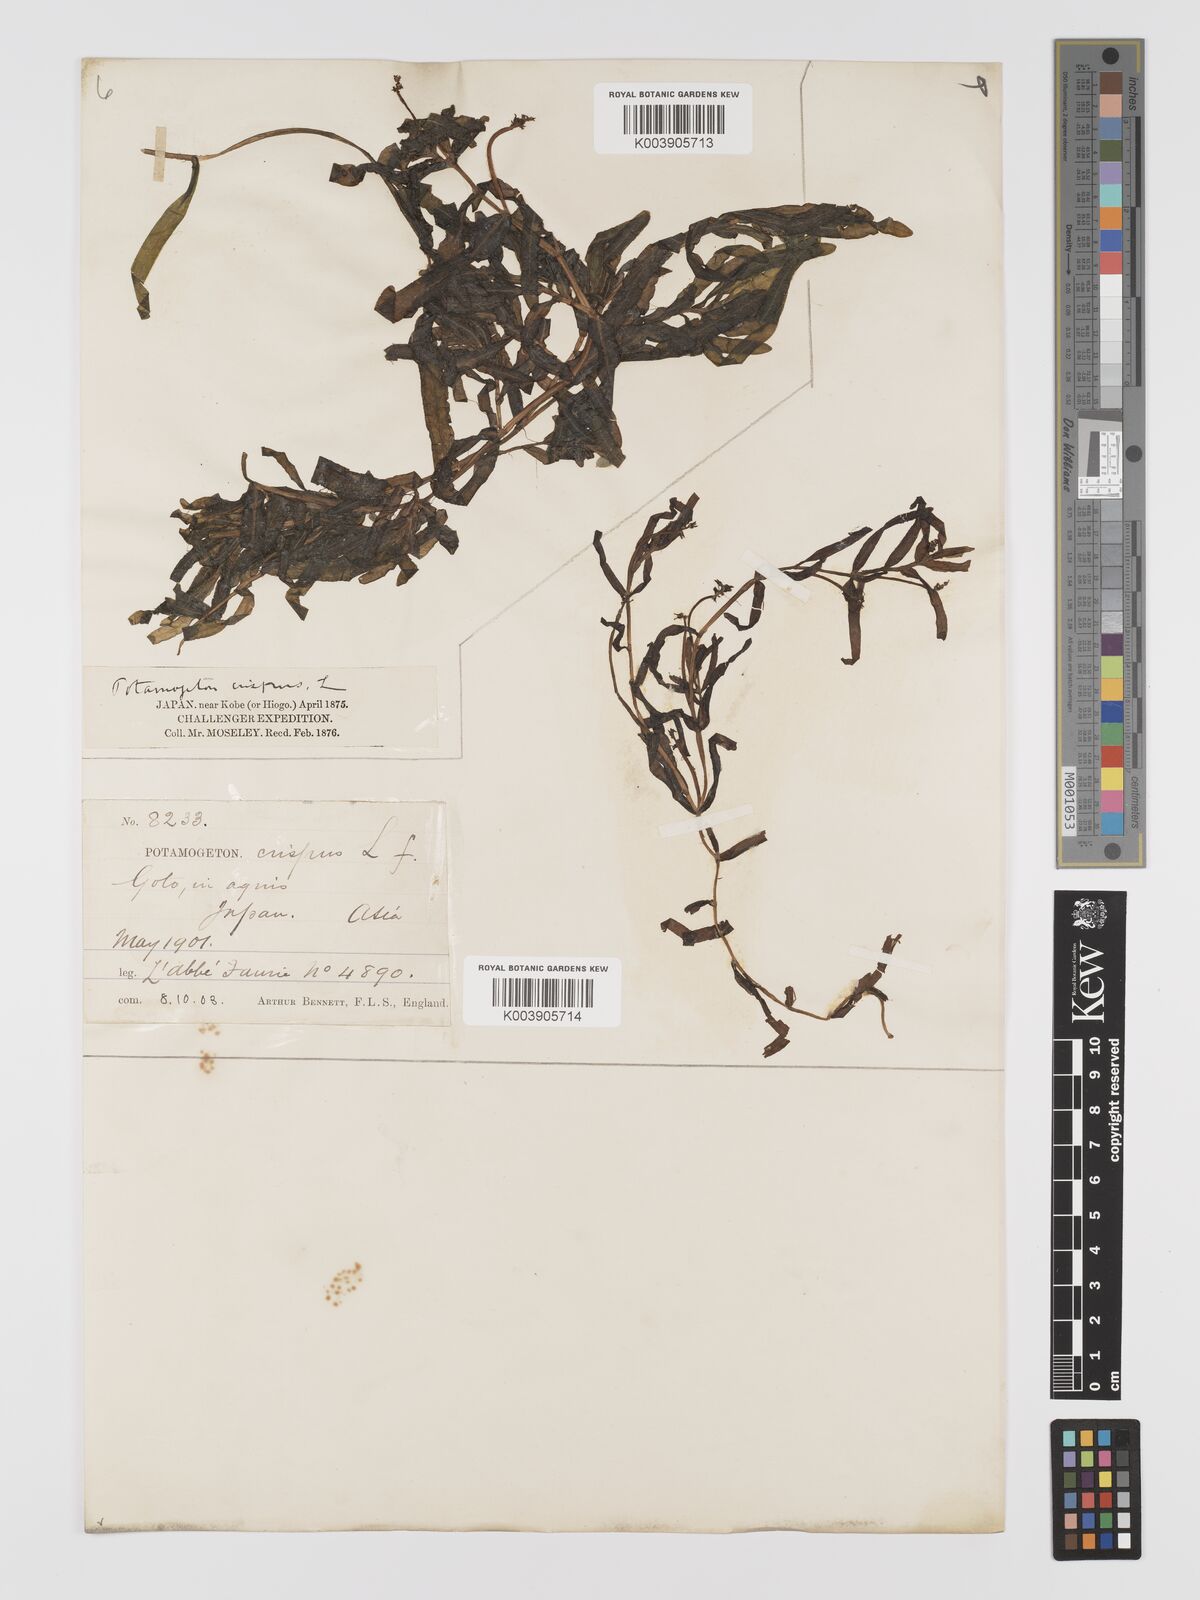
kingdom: Plantae
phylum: Tracheophyta
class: Liliopsida
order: Alismatales
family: Potamogetonaceae
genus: Potamogeton
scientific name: Potamogeton crispus
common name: Curled pondweed
